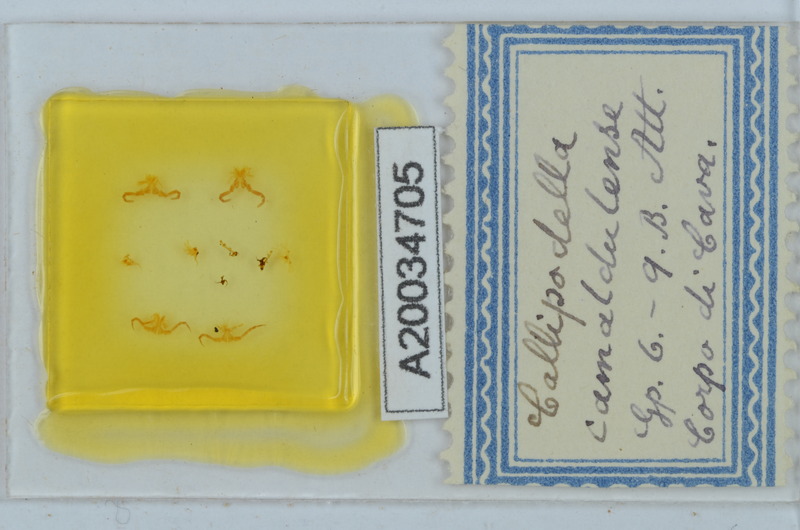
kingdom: Animalia
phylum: Arthropoda
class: Diplopoda
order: Callipodida
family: Schizopetalidae
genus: Callipodella
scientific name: Callipodella vinciguerrae
